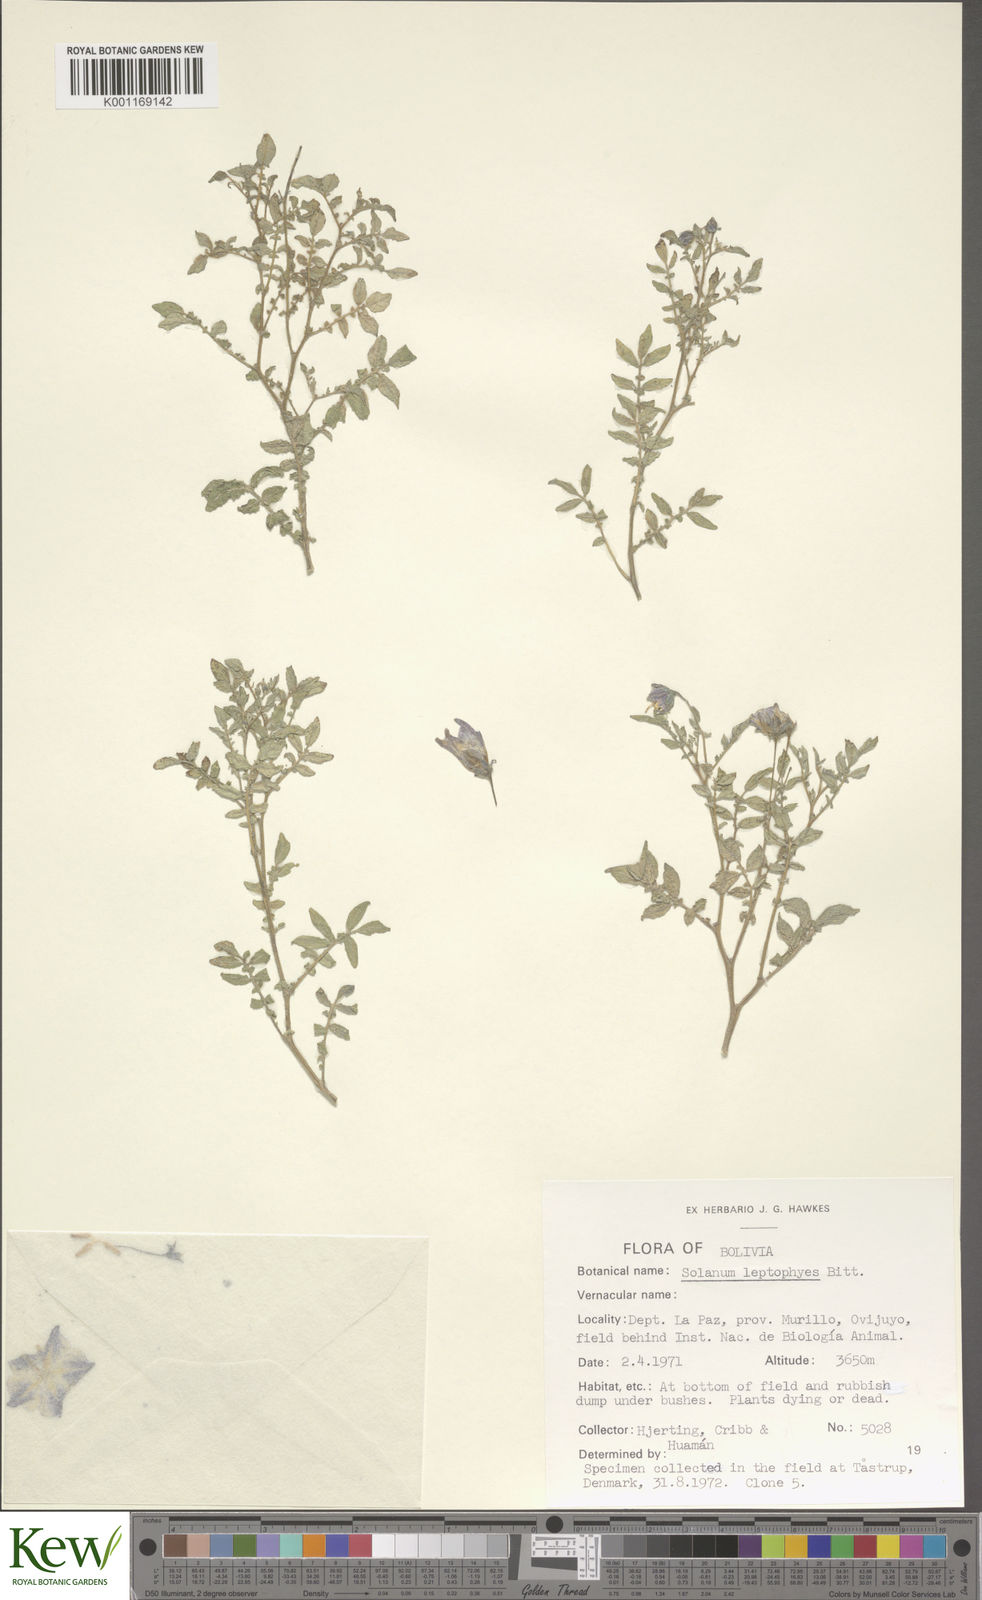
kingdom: Plantae
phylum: Tracheophyta
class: Magnoliopsida
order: Solanales
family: Solanaceae
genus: Solanum
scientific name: Solanum brevicaule
